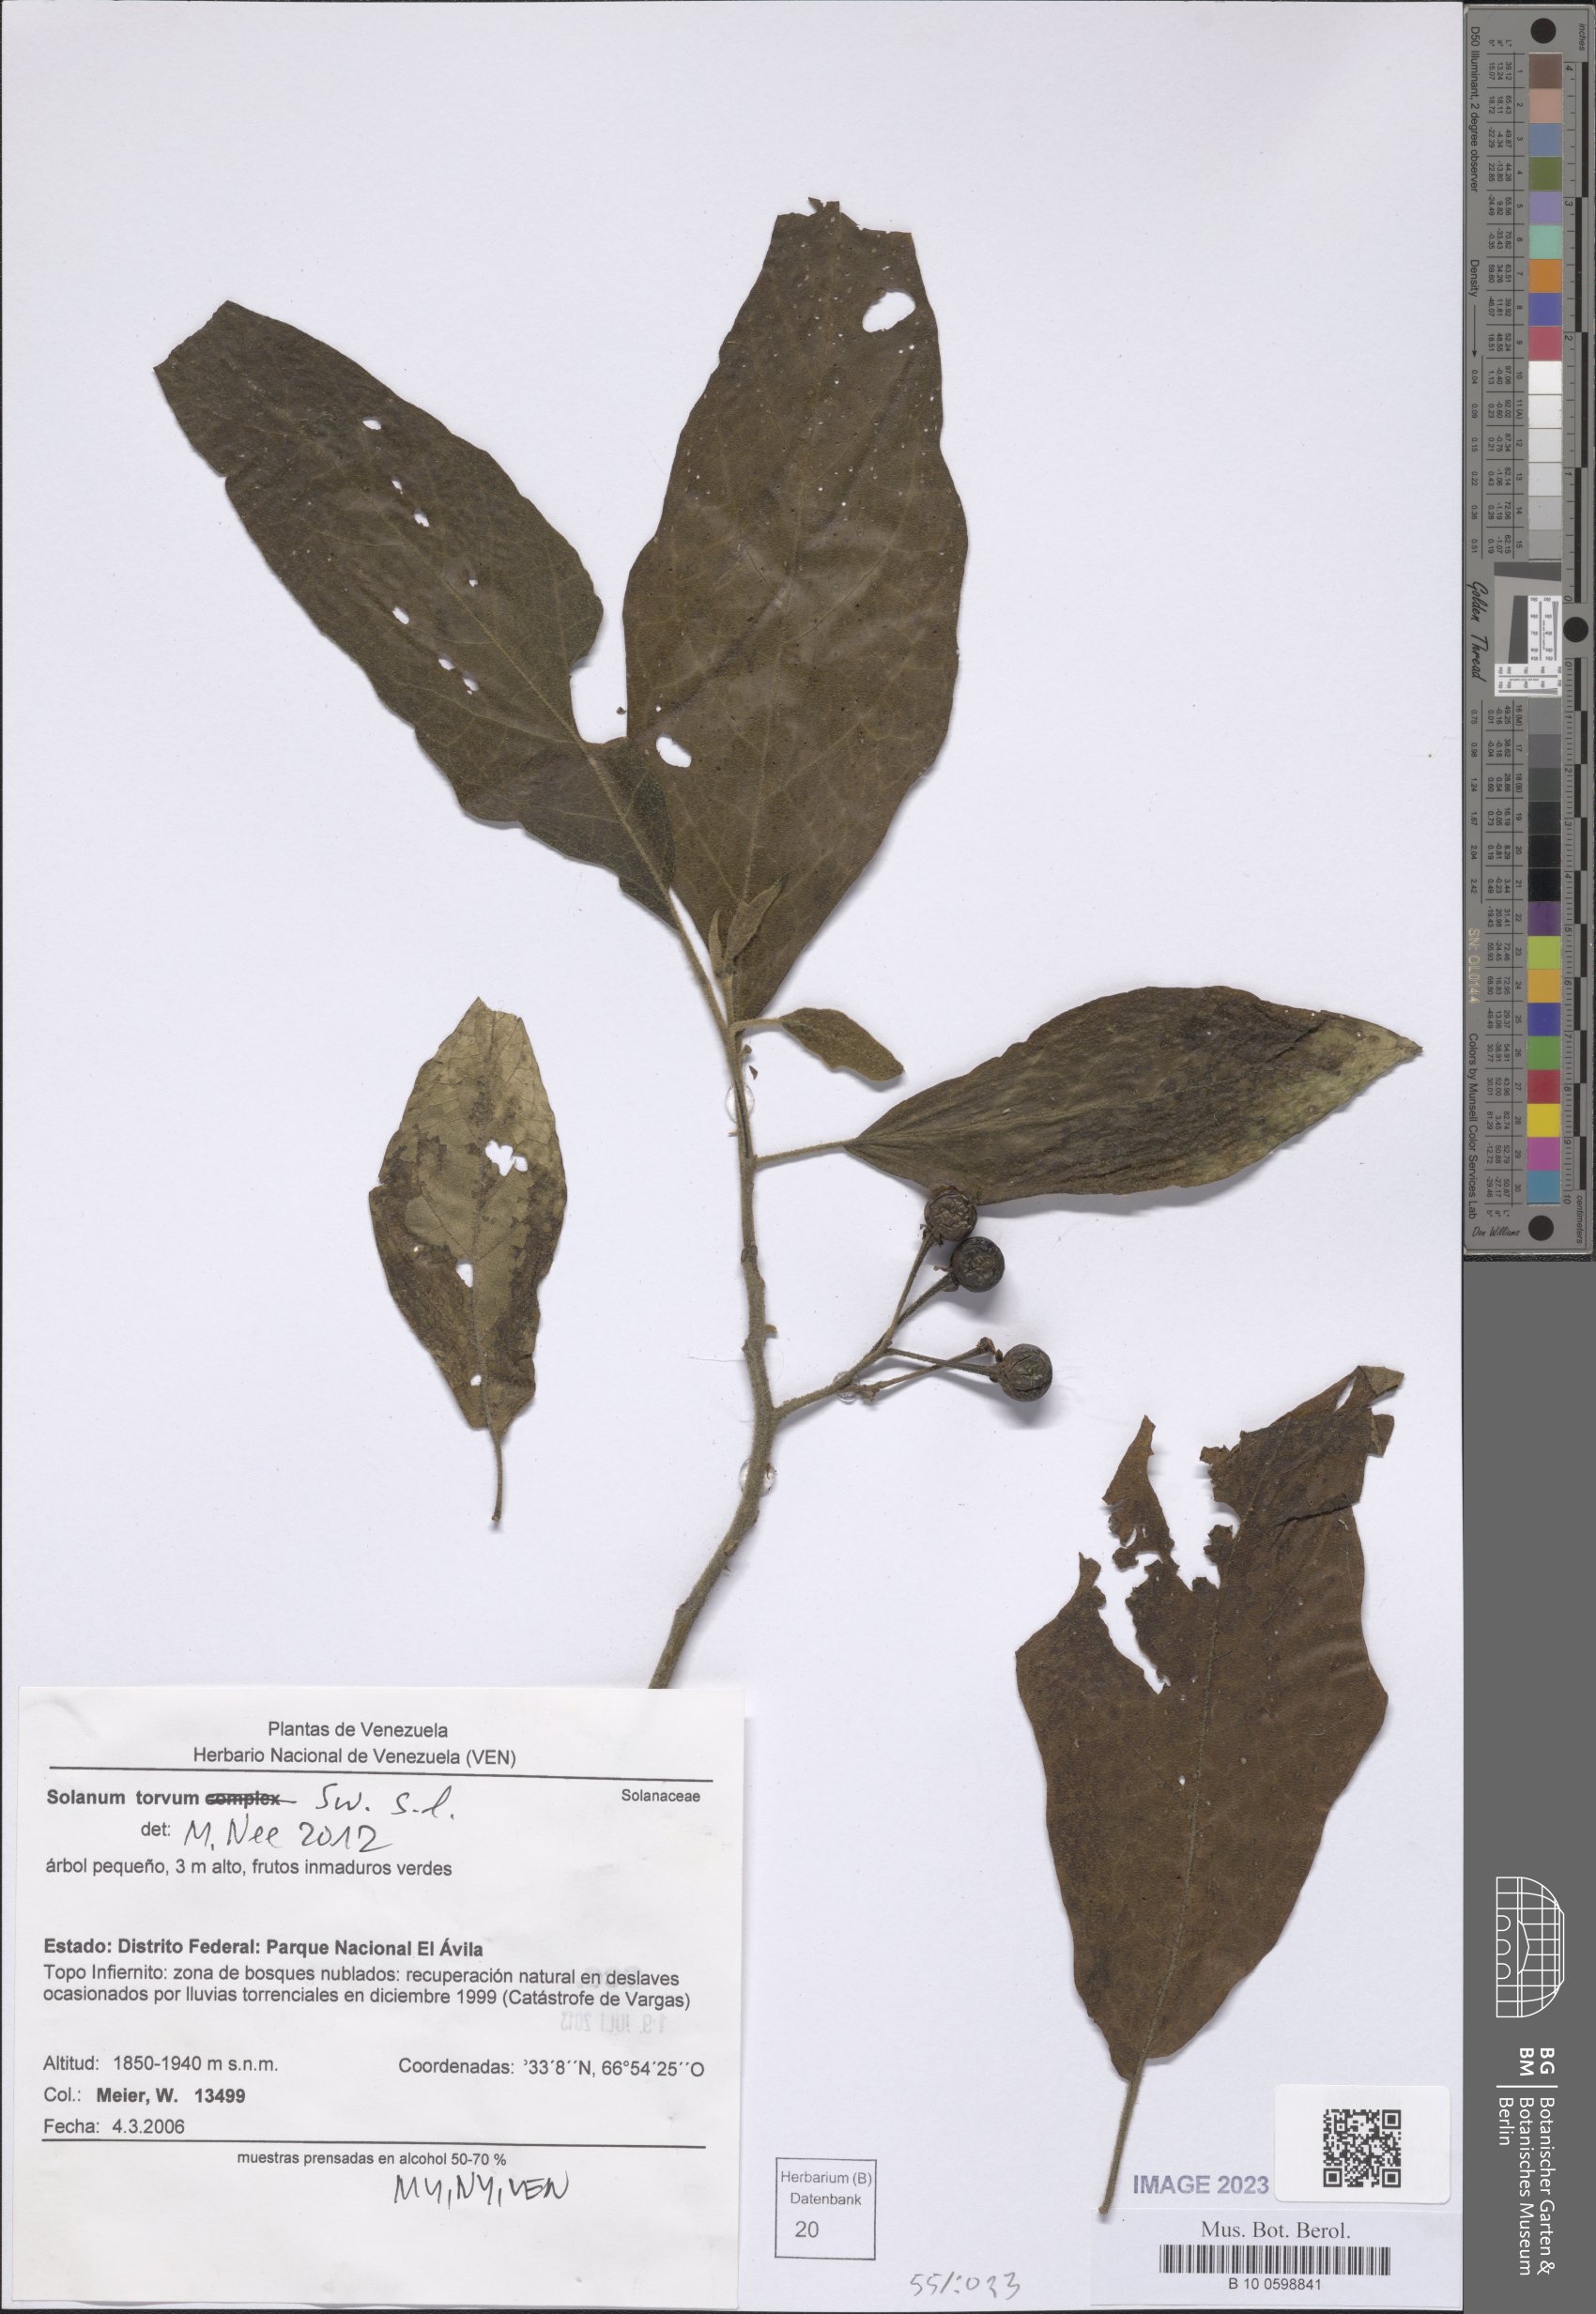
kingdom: Plantae
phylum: Tracheophyta
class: Magnoliopsida
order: Solanales
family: Solanaceae
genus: Solanum
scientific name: Solanum torvum
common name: Turkey berry
